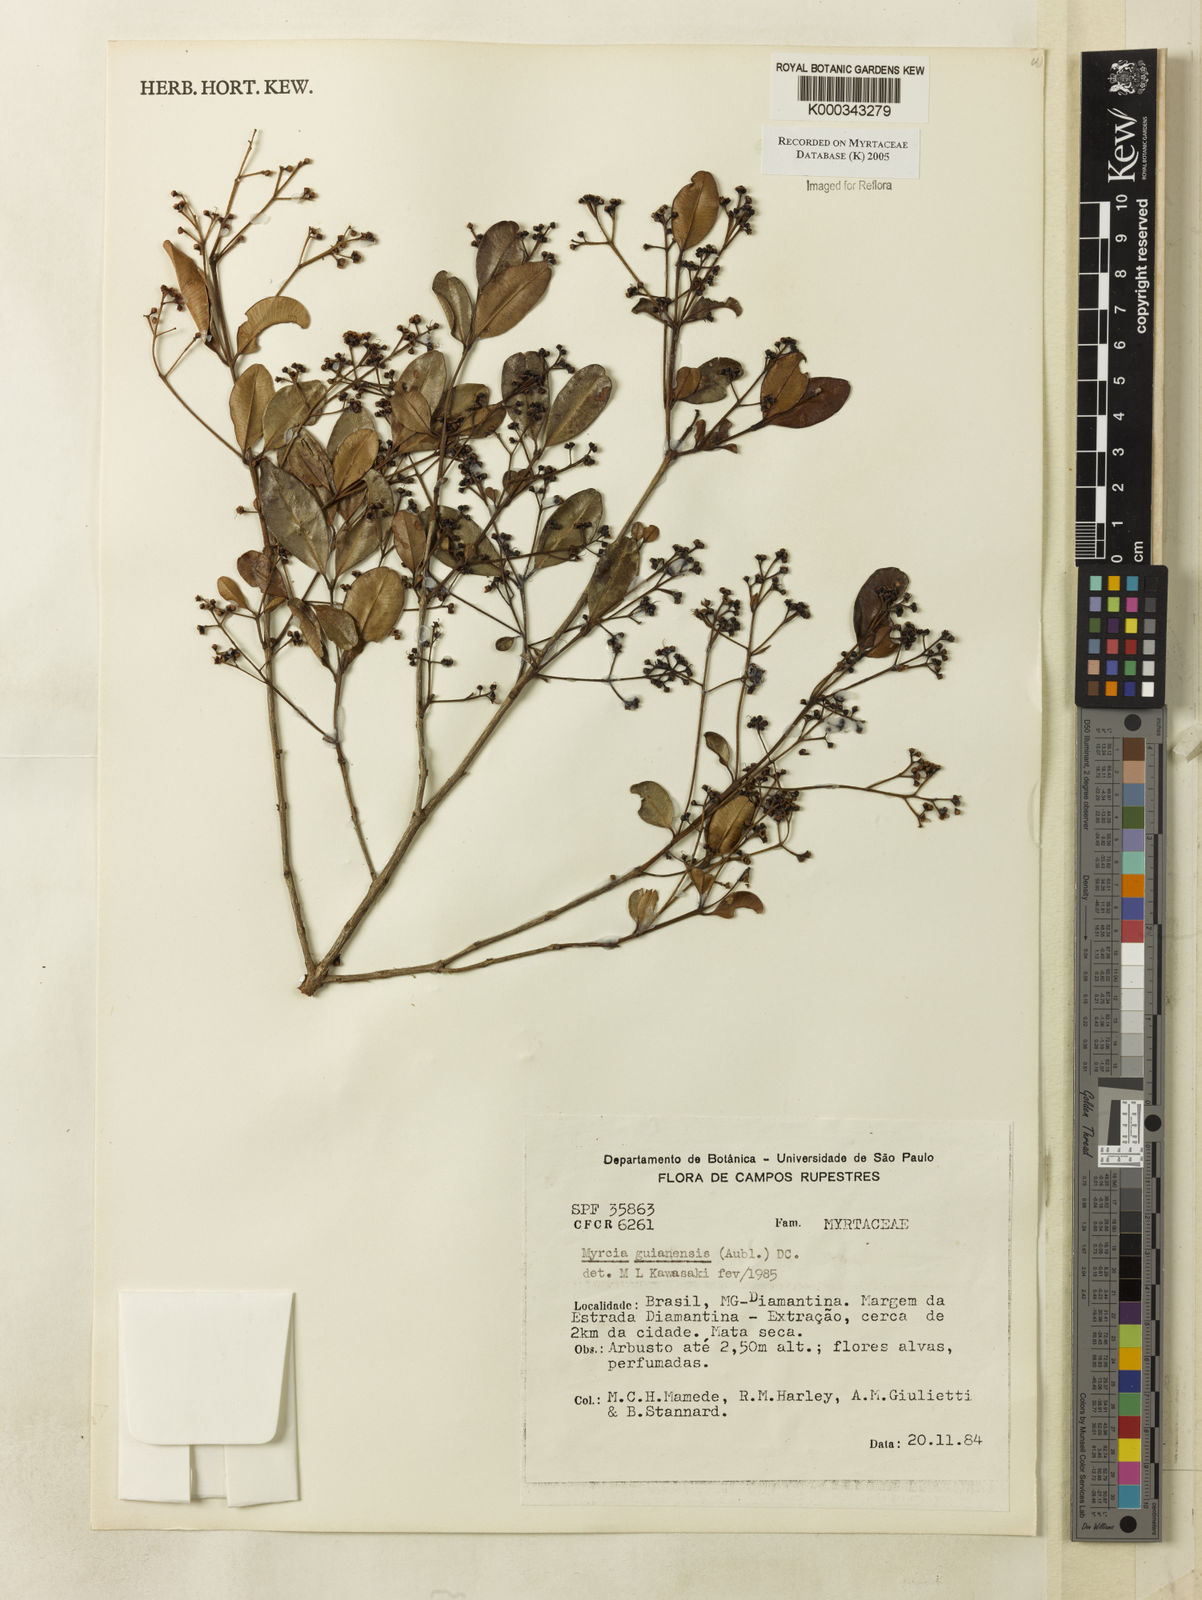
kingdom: Plantae
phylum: Tracheophyta
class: Magnoliopsida
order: Myrtales
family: Myrtaceae
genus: Myrcia
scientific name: Myrcia guianensis
